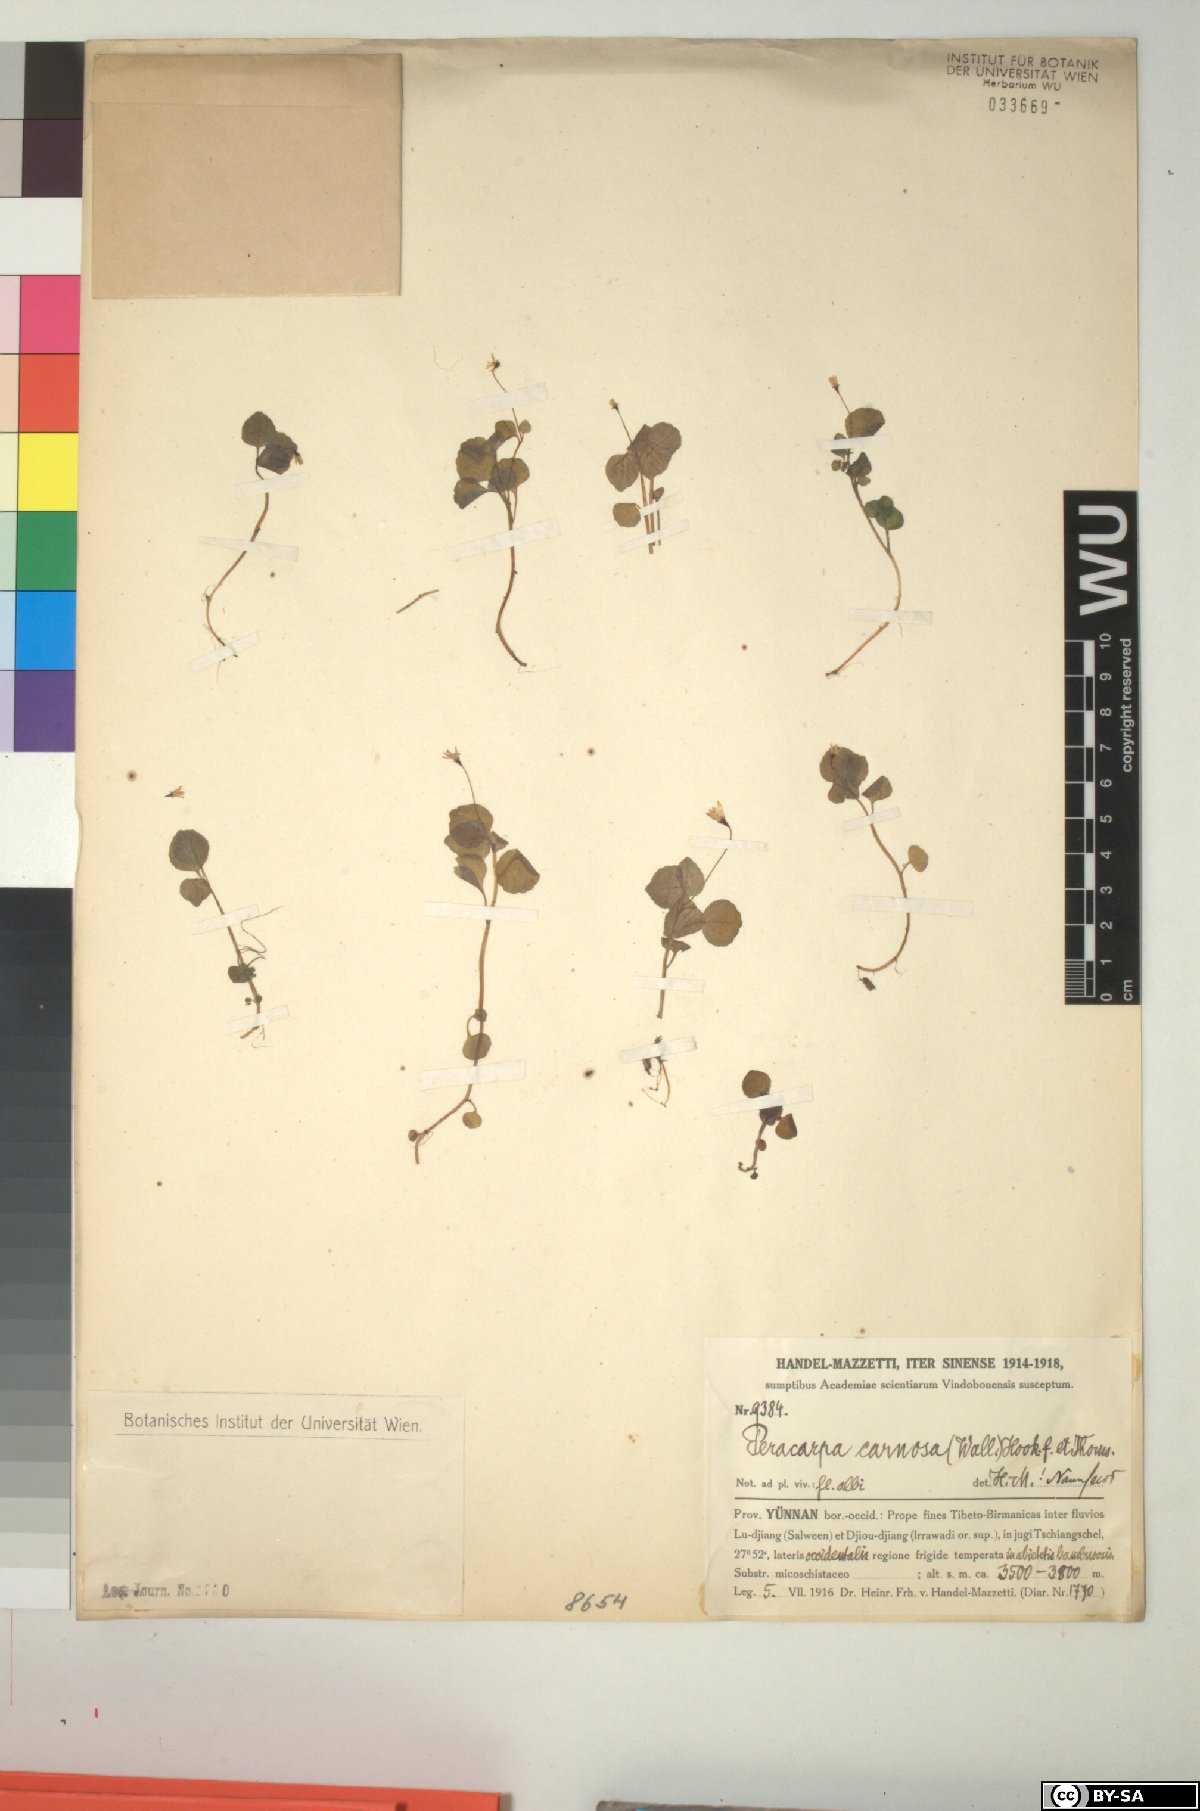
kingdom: Plantae
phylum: Tracheophyta
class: Magnoliopsida
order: Asterales
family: Campanulaceae
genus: Peracarpa
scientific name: Peracarpa carnosa
